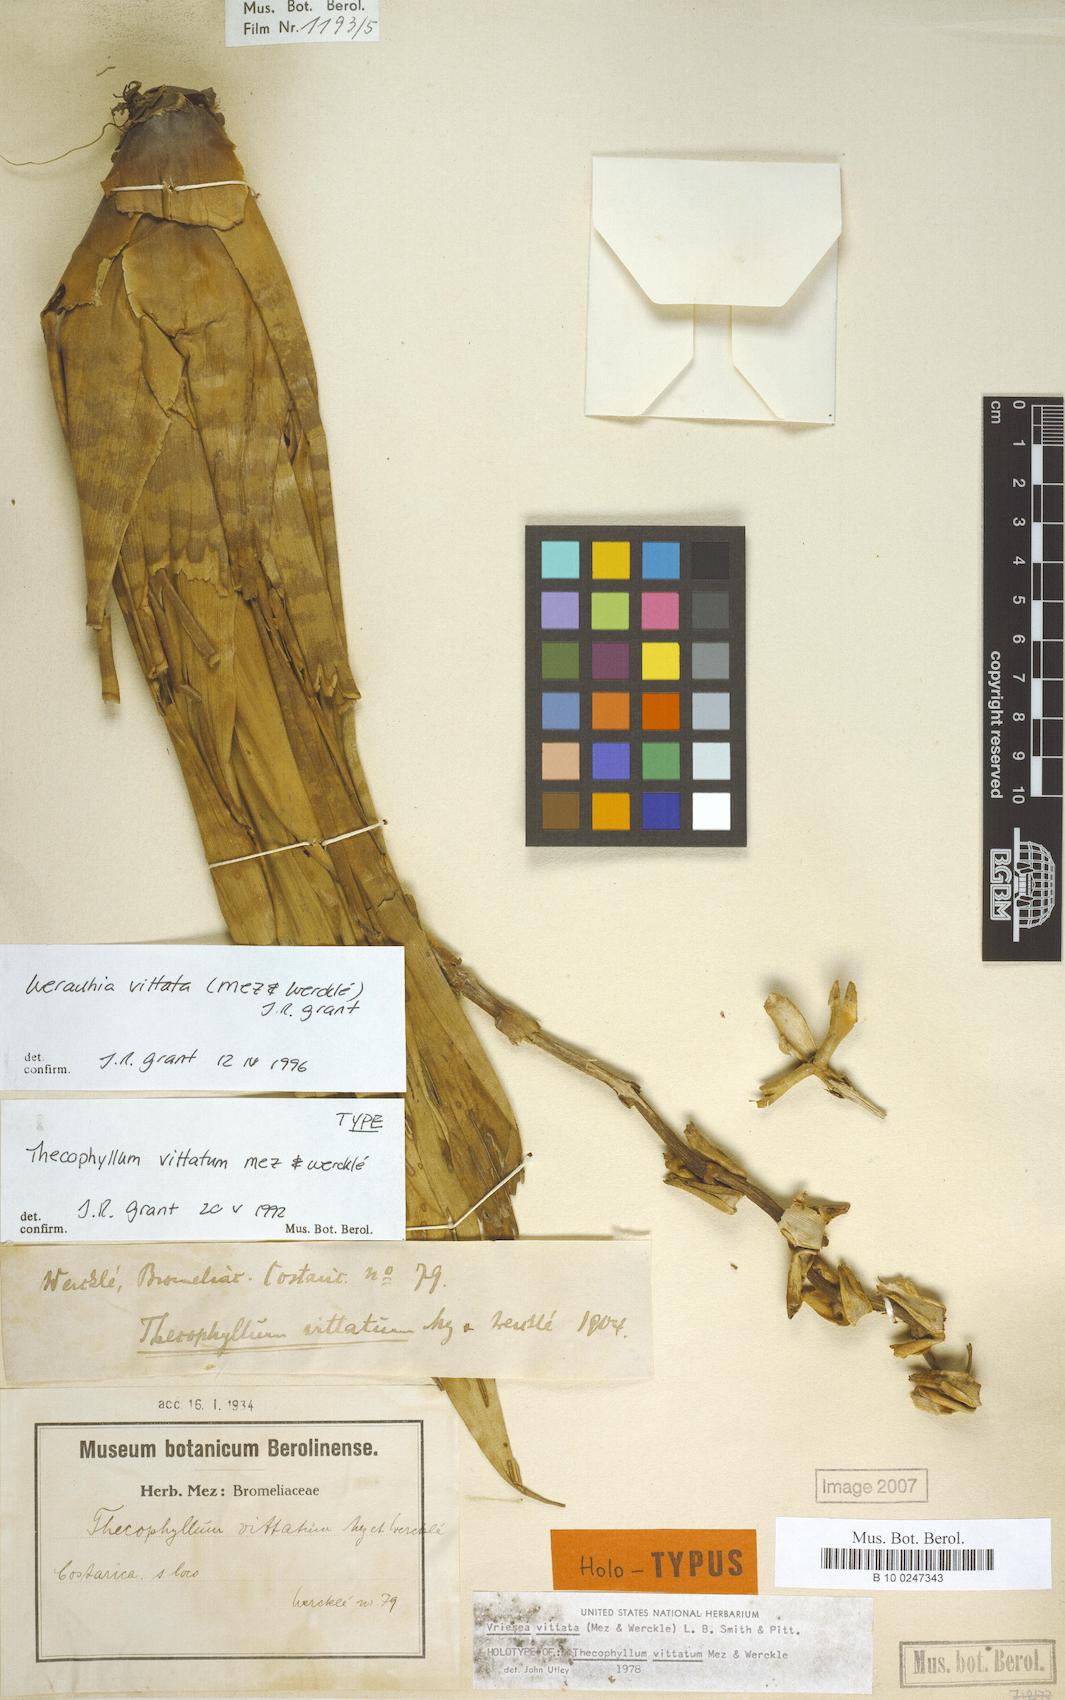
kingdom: Plantae
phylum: Tracheophyta
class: Liliopsida
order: Poales
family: Bromeliaceae
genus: Werauhia
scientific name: Werauhia vittata
